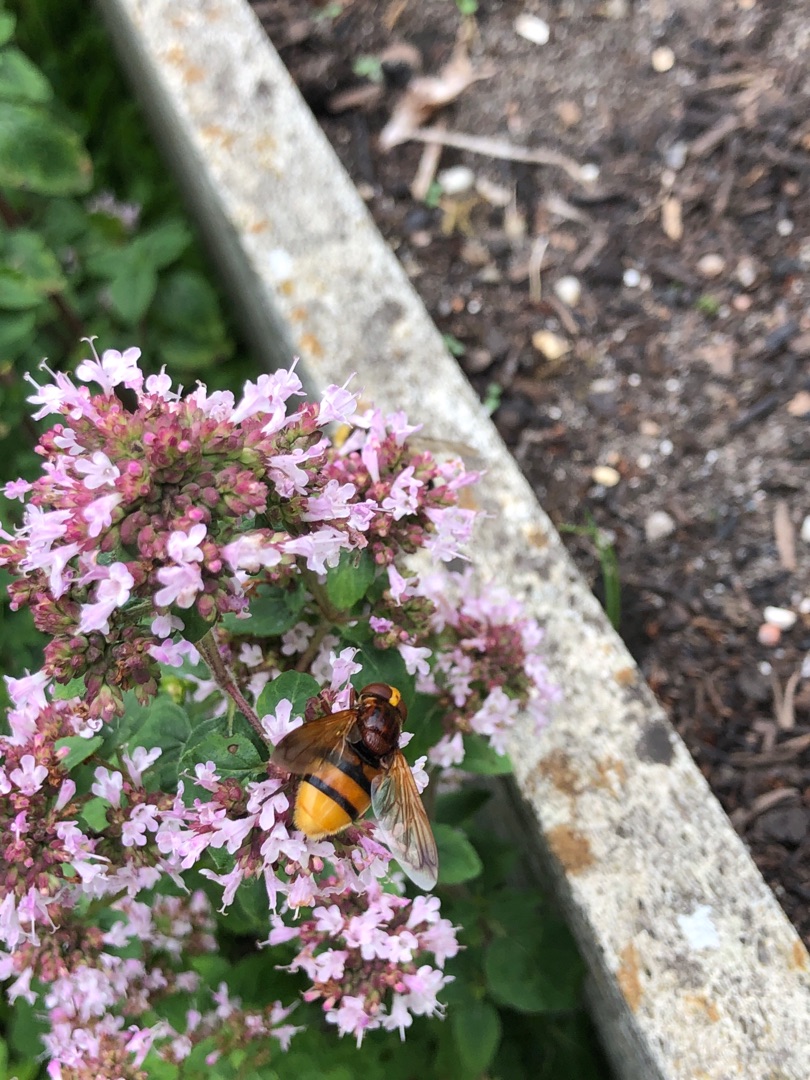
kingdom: Animalia
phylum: Arthropoda
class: Insecta
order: Diptera
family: Syrphidae
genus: Volucella
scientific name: Volucella zonaria
